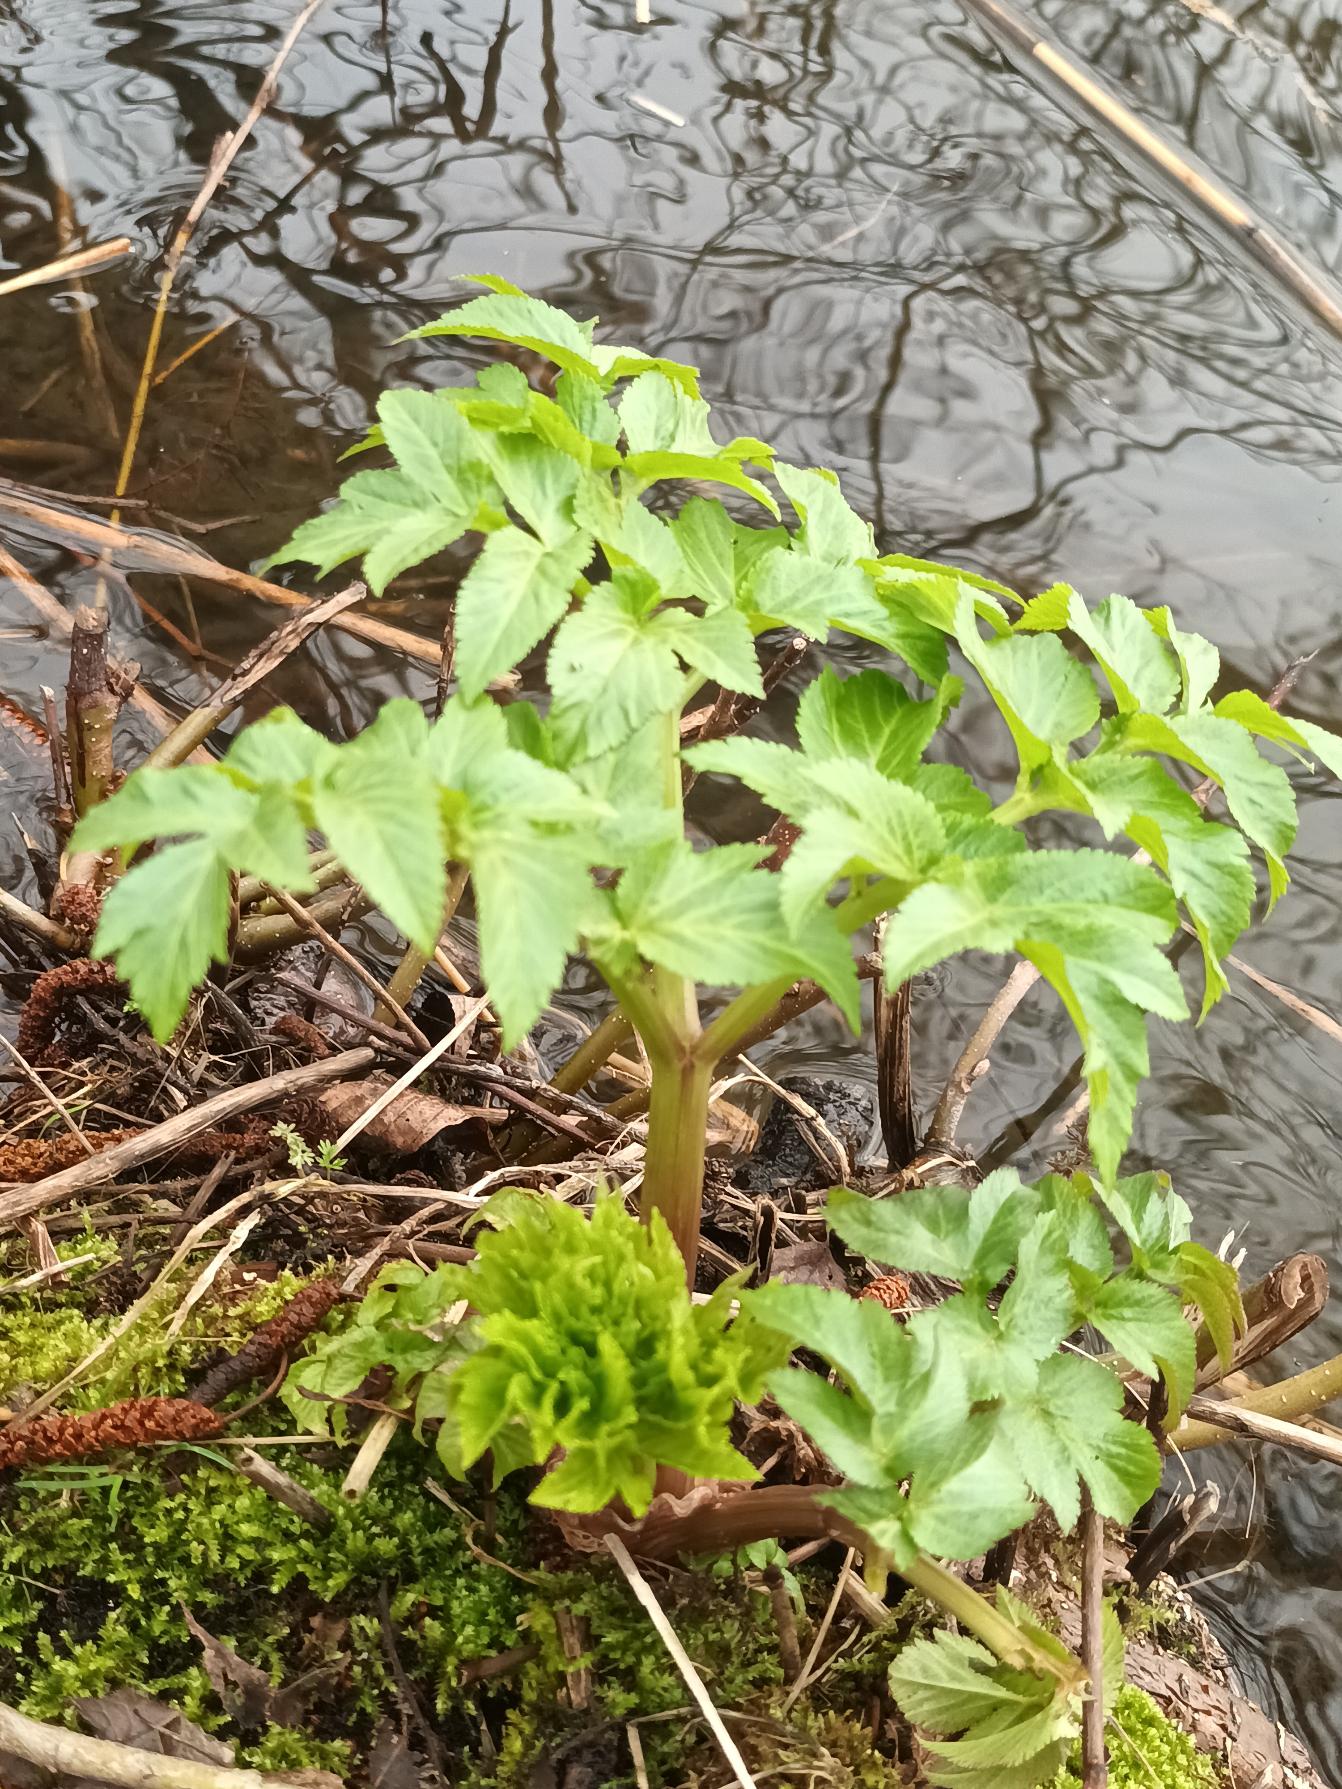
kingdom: Plantae
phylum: Tracheophyta
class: Magnoliopsida
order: Apiales
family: Apiaceae
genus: Angelica
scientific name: Angelica archangelica
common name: Fjeld-kvan
